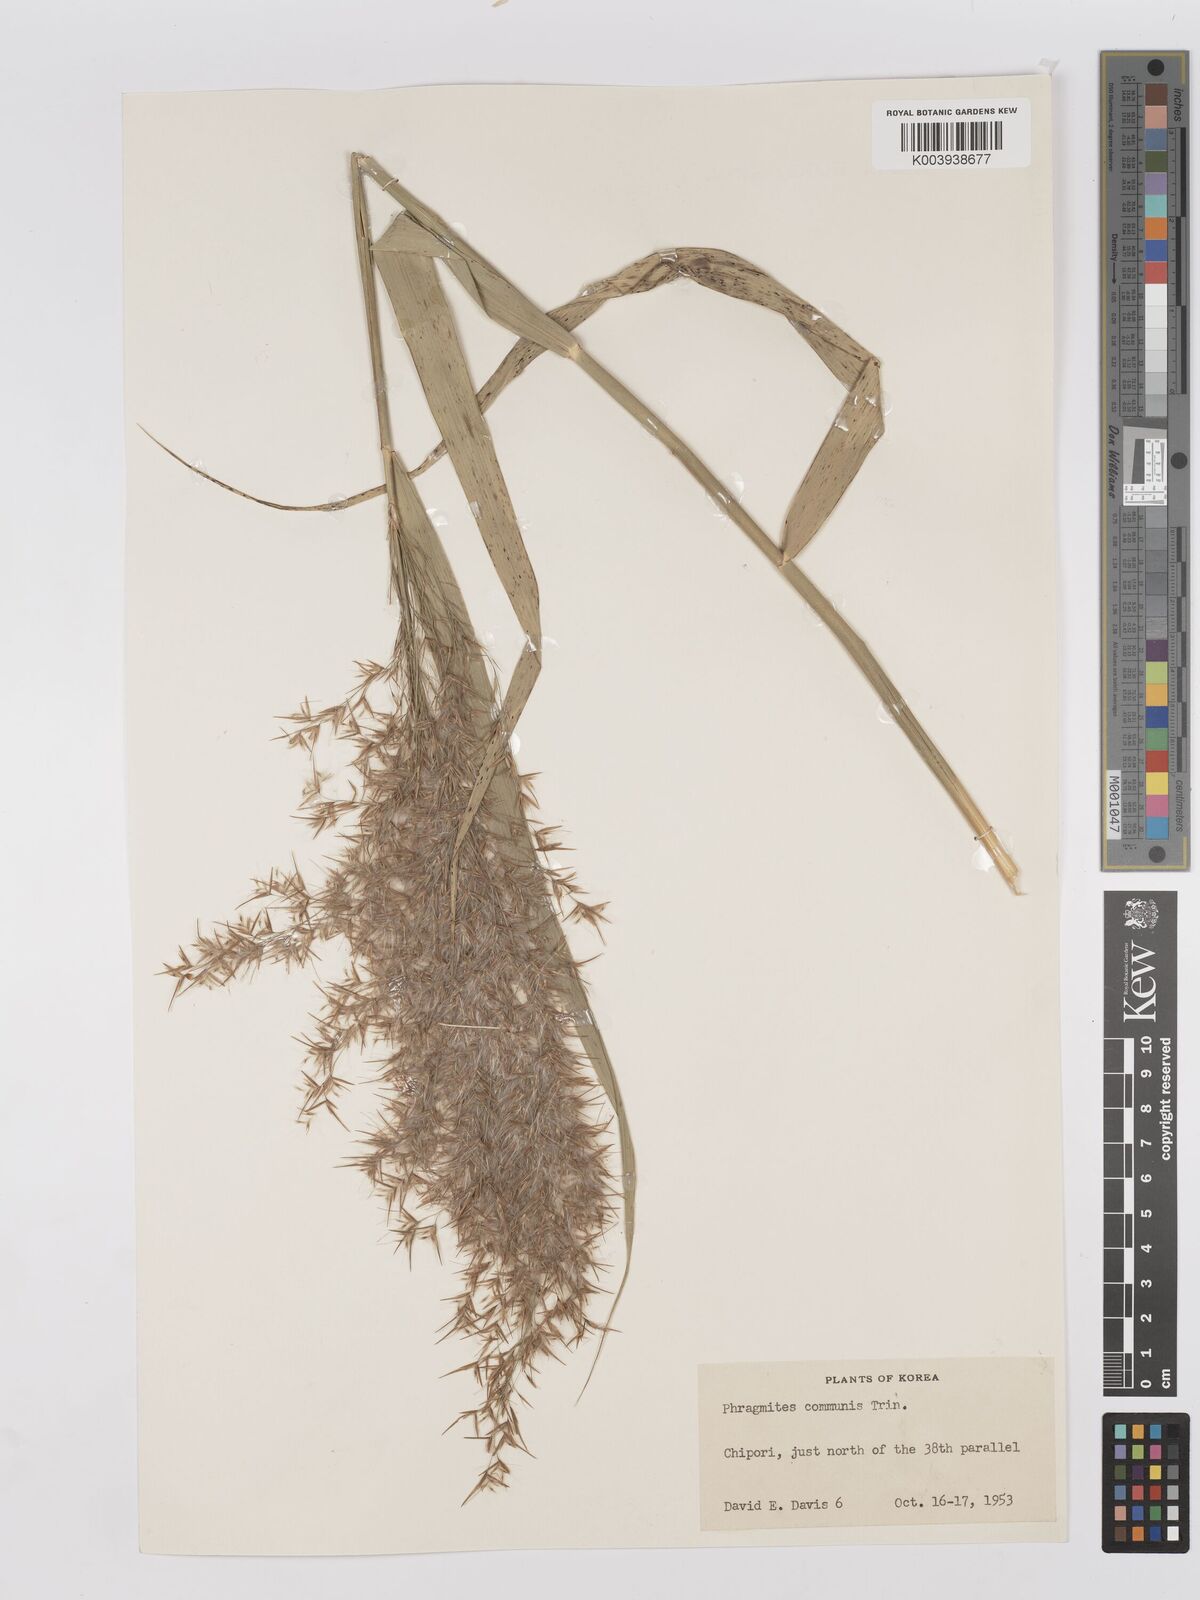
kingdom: Plantae
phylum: Tracheophyta
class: Liliopsida
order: Poales
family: Poaceae
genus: Phragmites
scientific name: Phragmites australis
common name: Common reed
